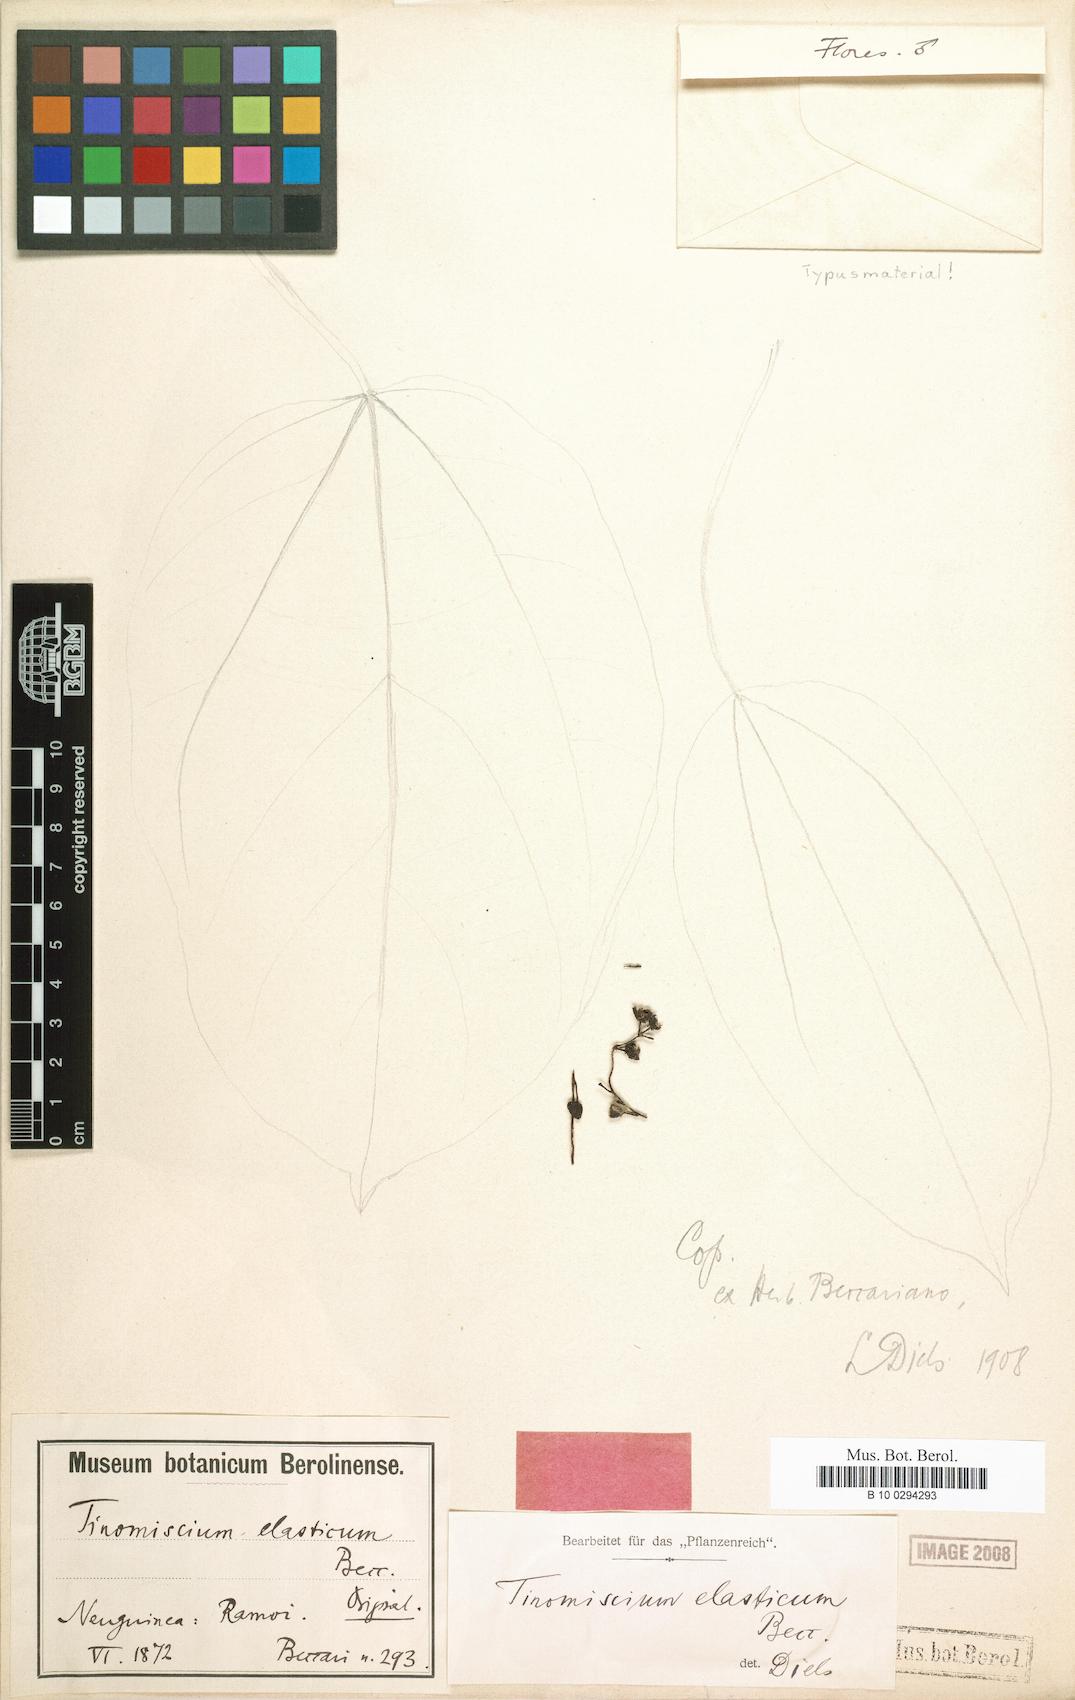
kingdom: Plantae
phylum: Tracheophyta
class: Magnoliopsida
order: Ranunculales
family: Menispermaceae
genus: Tinomiscium
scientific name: Tinomiscium petiolare
